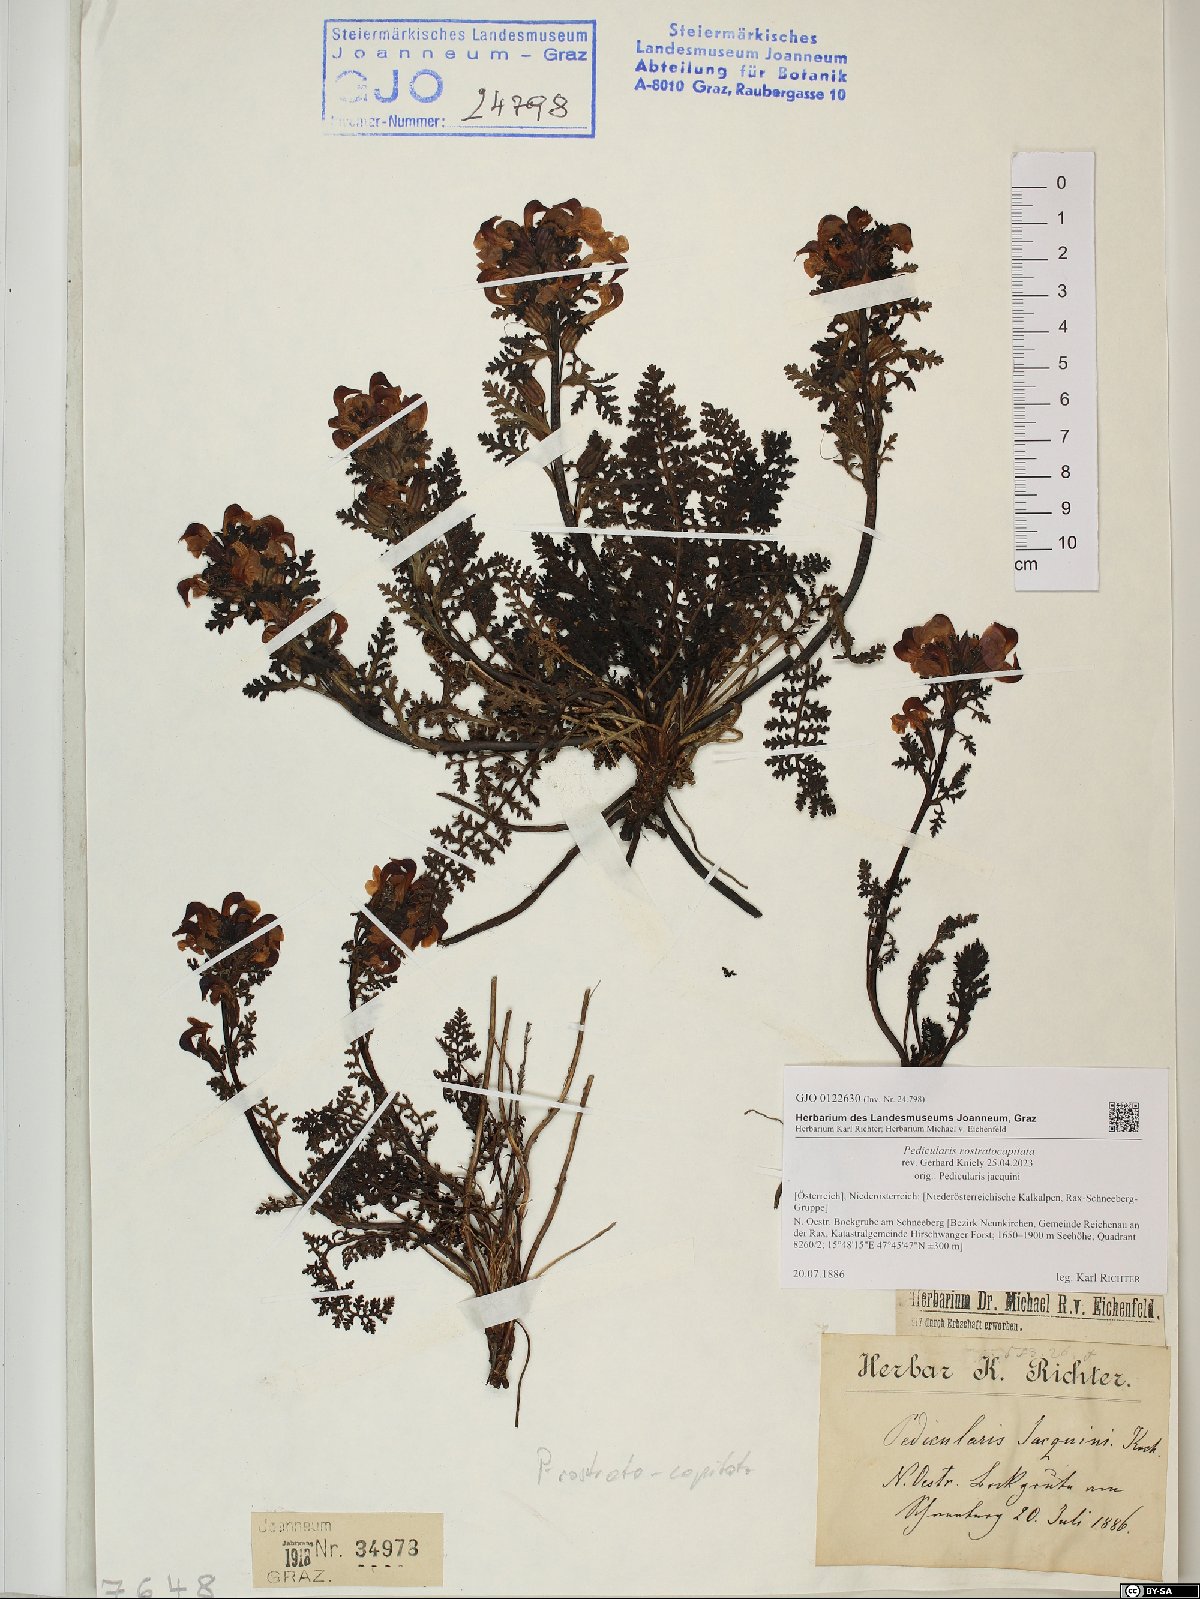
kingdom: Plantae
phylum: Tracheophyta
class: Magnoliopsida
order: Lamiales
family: Orobanchaceae
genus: Pedicularis
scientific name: Pedicularis rostratocapitata
